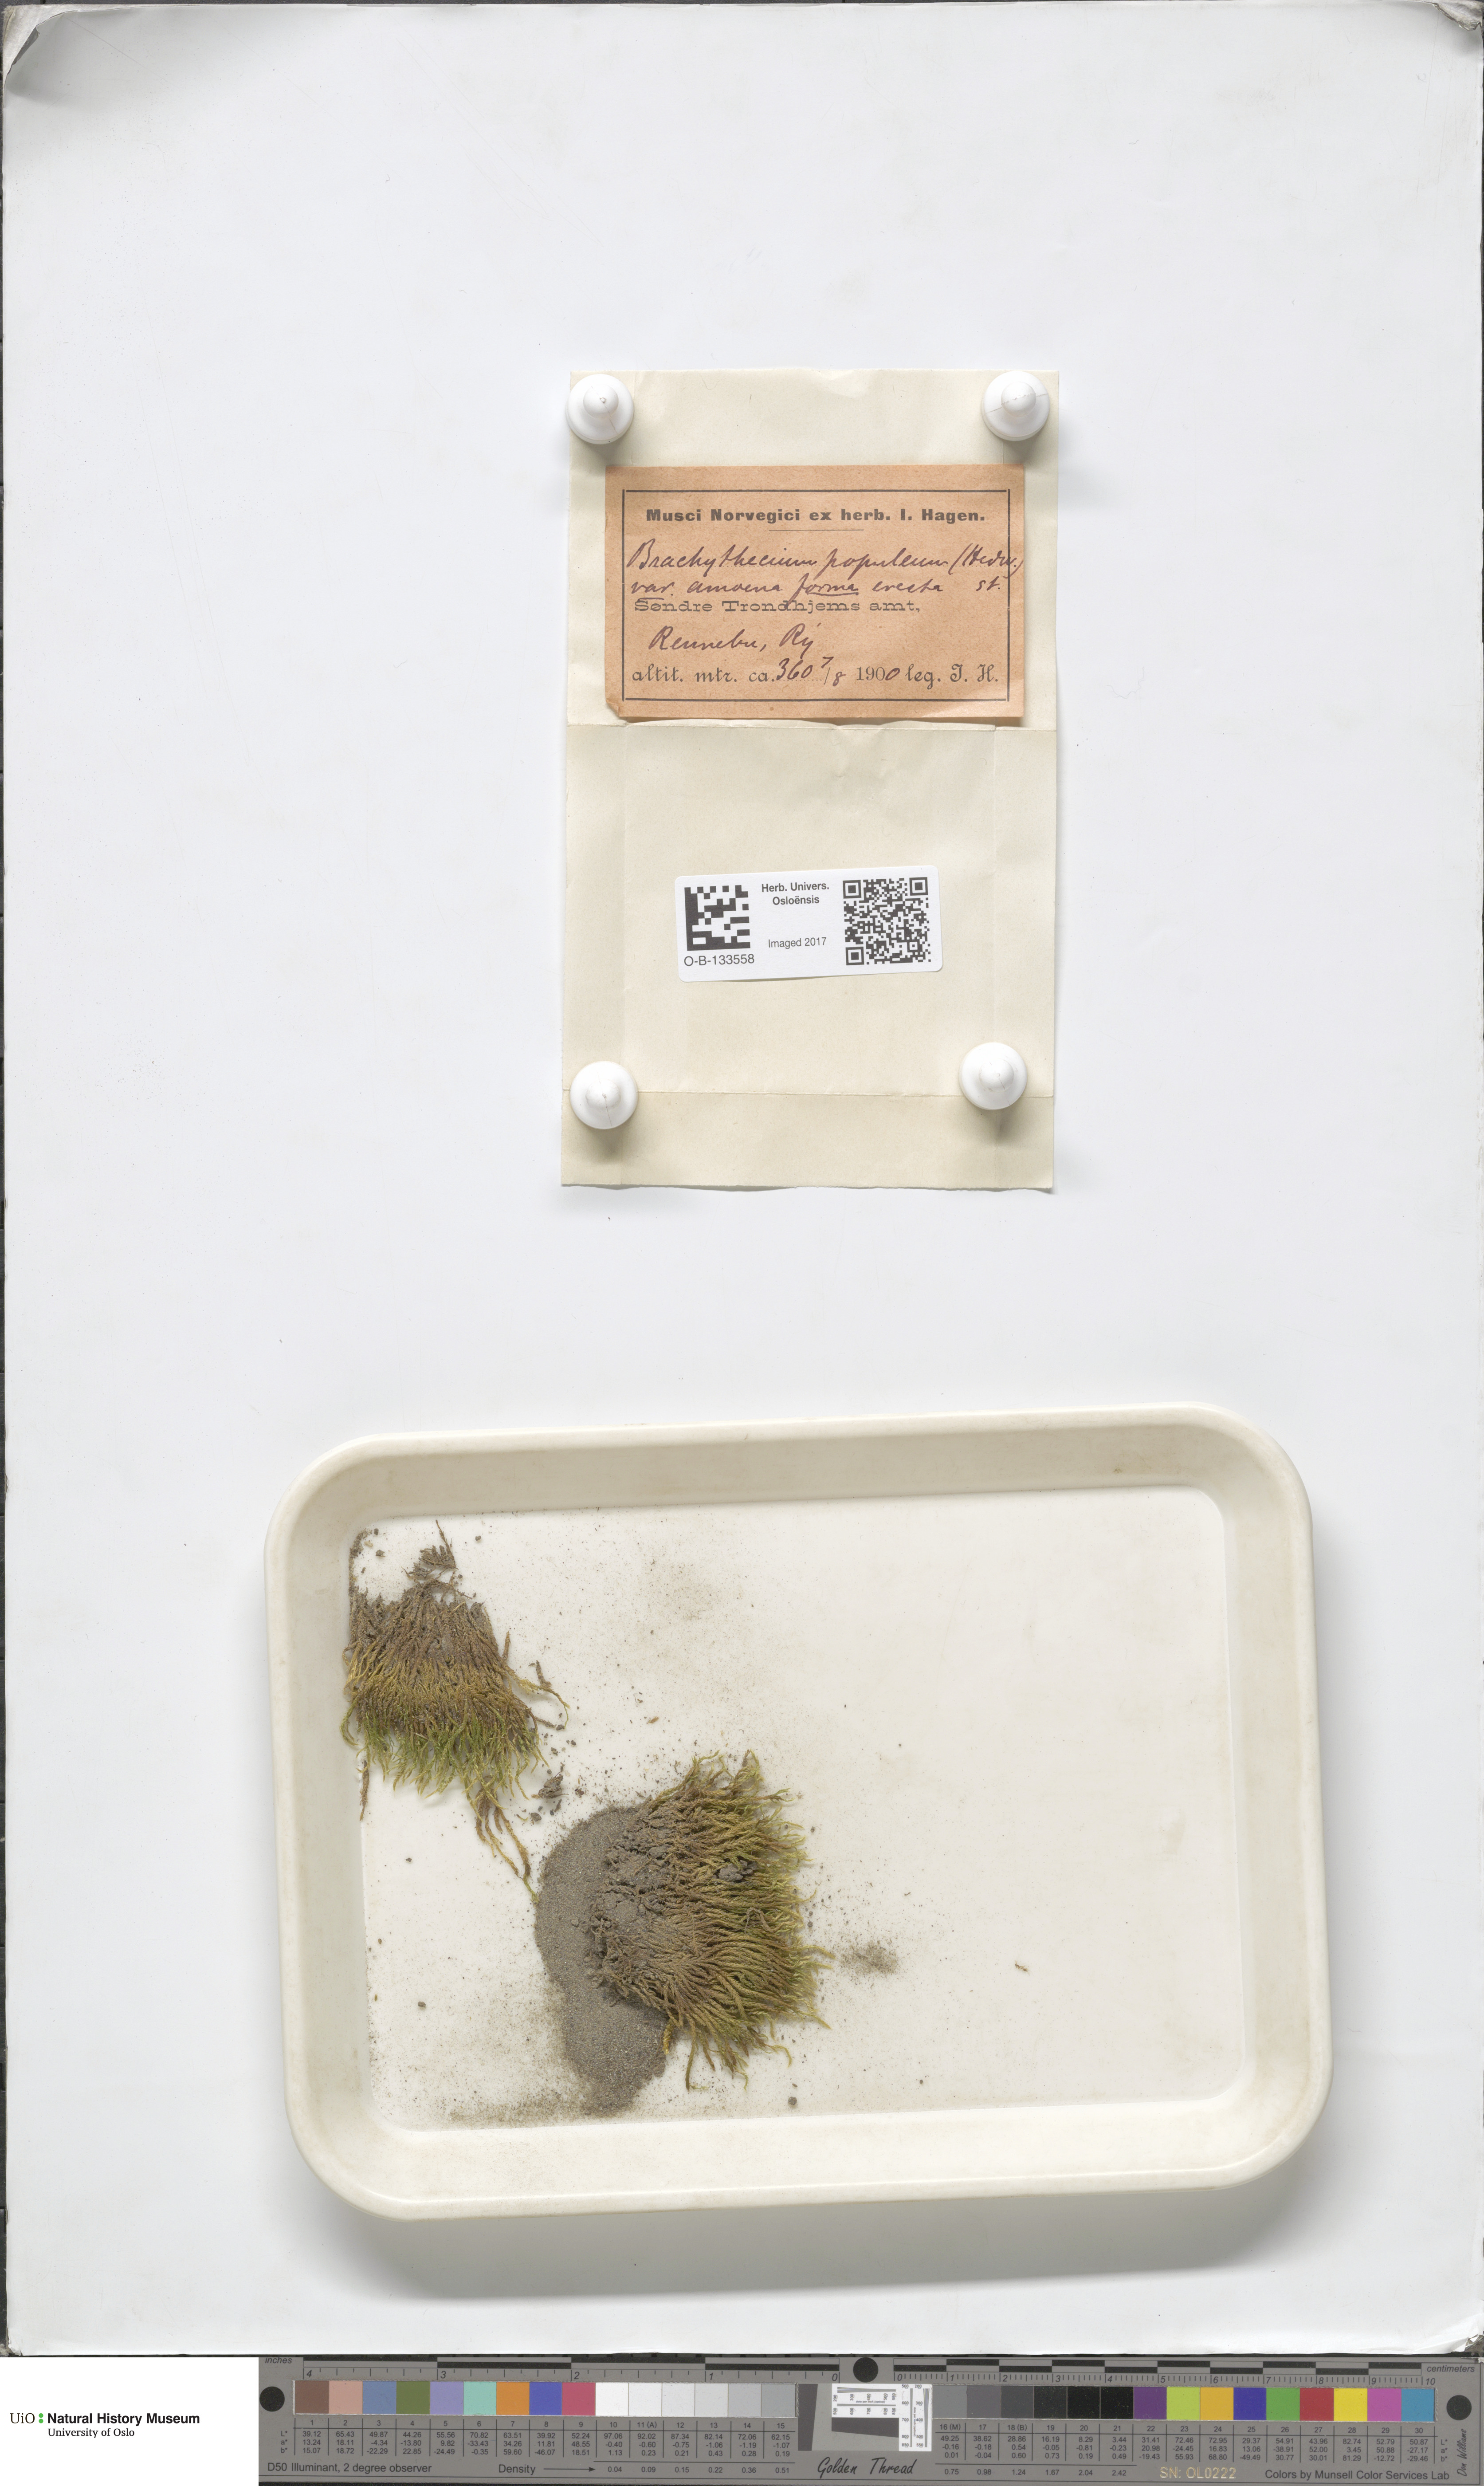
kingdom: Plantae
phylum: Bryophyta
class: Bryopsida
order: Hypnales
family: Brachytheciaceae
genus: Sciuro-hypnum
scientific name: Sciuro-hypnum plumosum
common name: Rusty feather-moss
